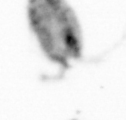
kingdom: Animalia
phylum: Arthropoda
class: Copepoda
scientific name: Copepoda
